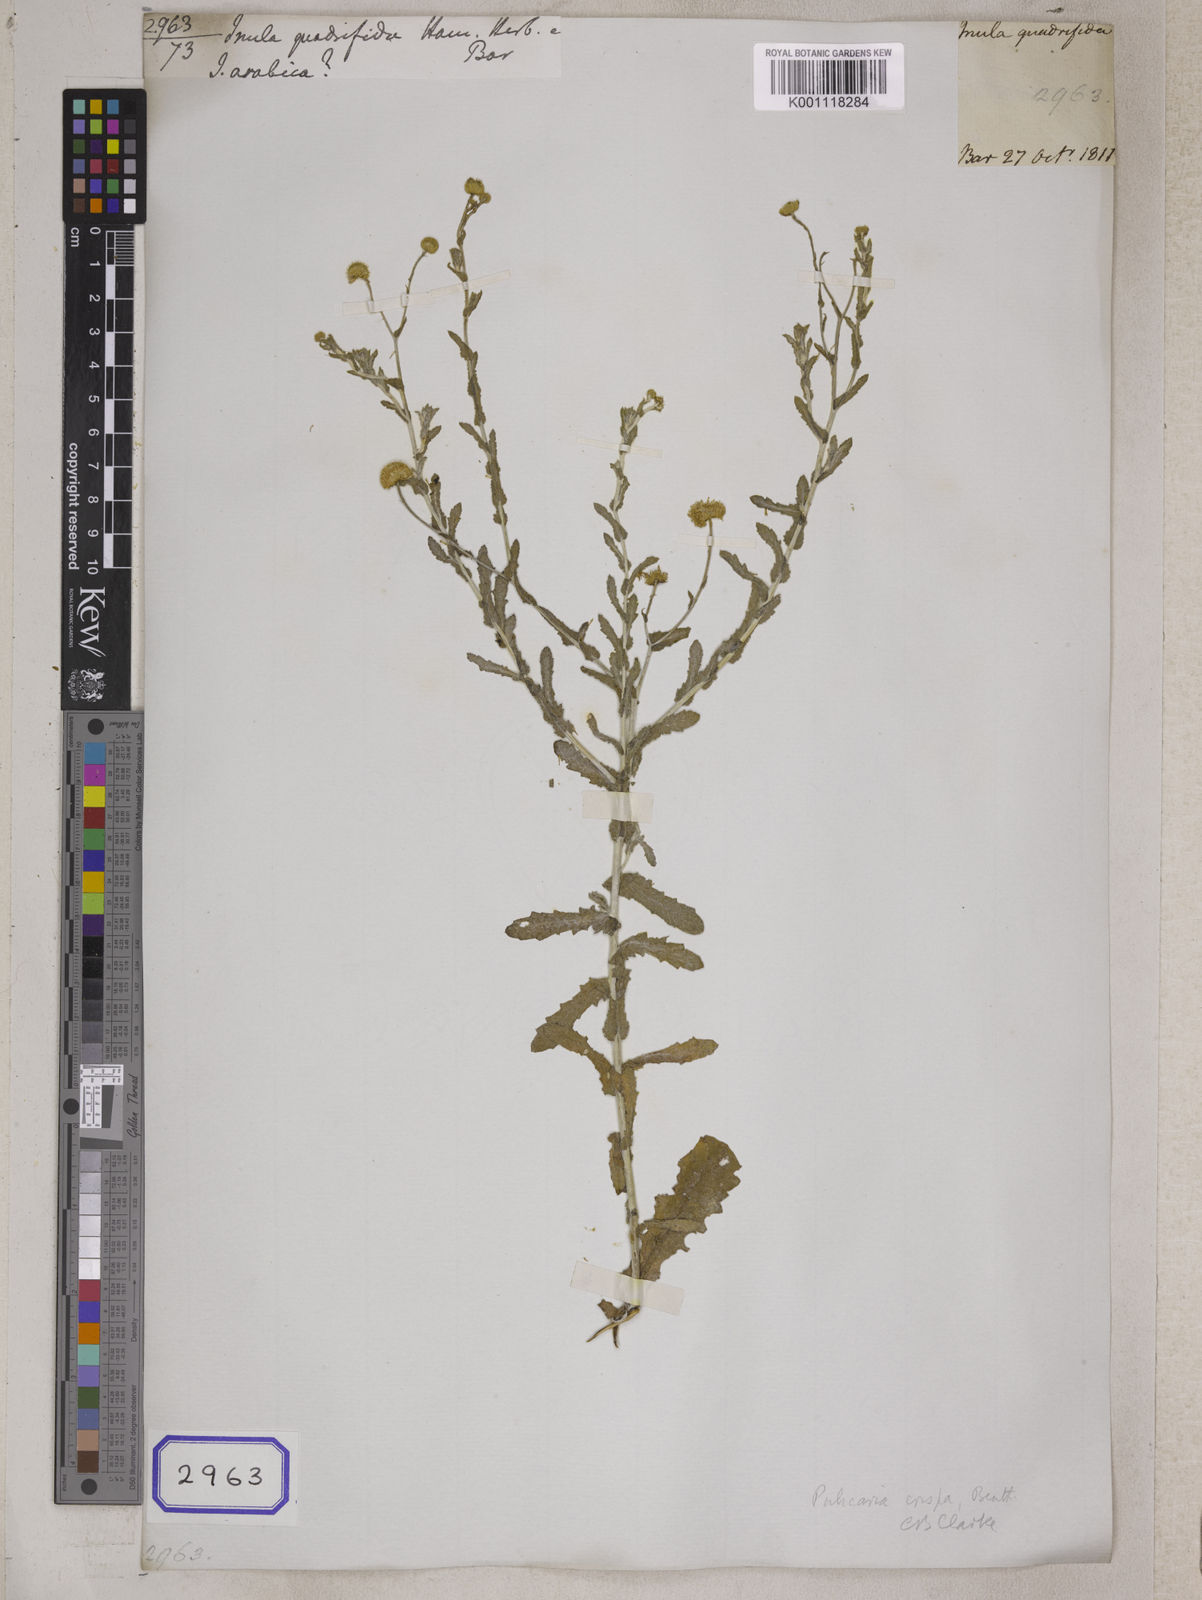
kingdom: Plantae
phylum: Tracheophyta
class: Magnoliopsida
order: Asterales
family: Asteraceae
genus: Pulicaria
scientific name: Pulicaria undulata
